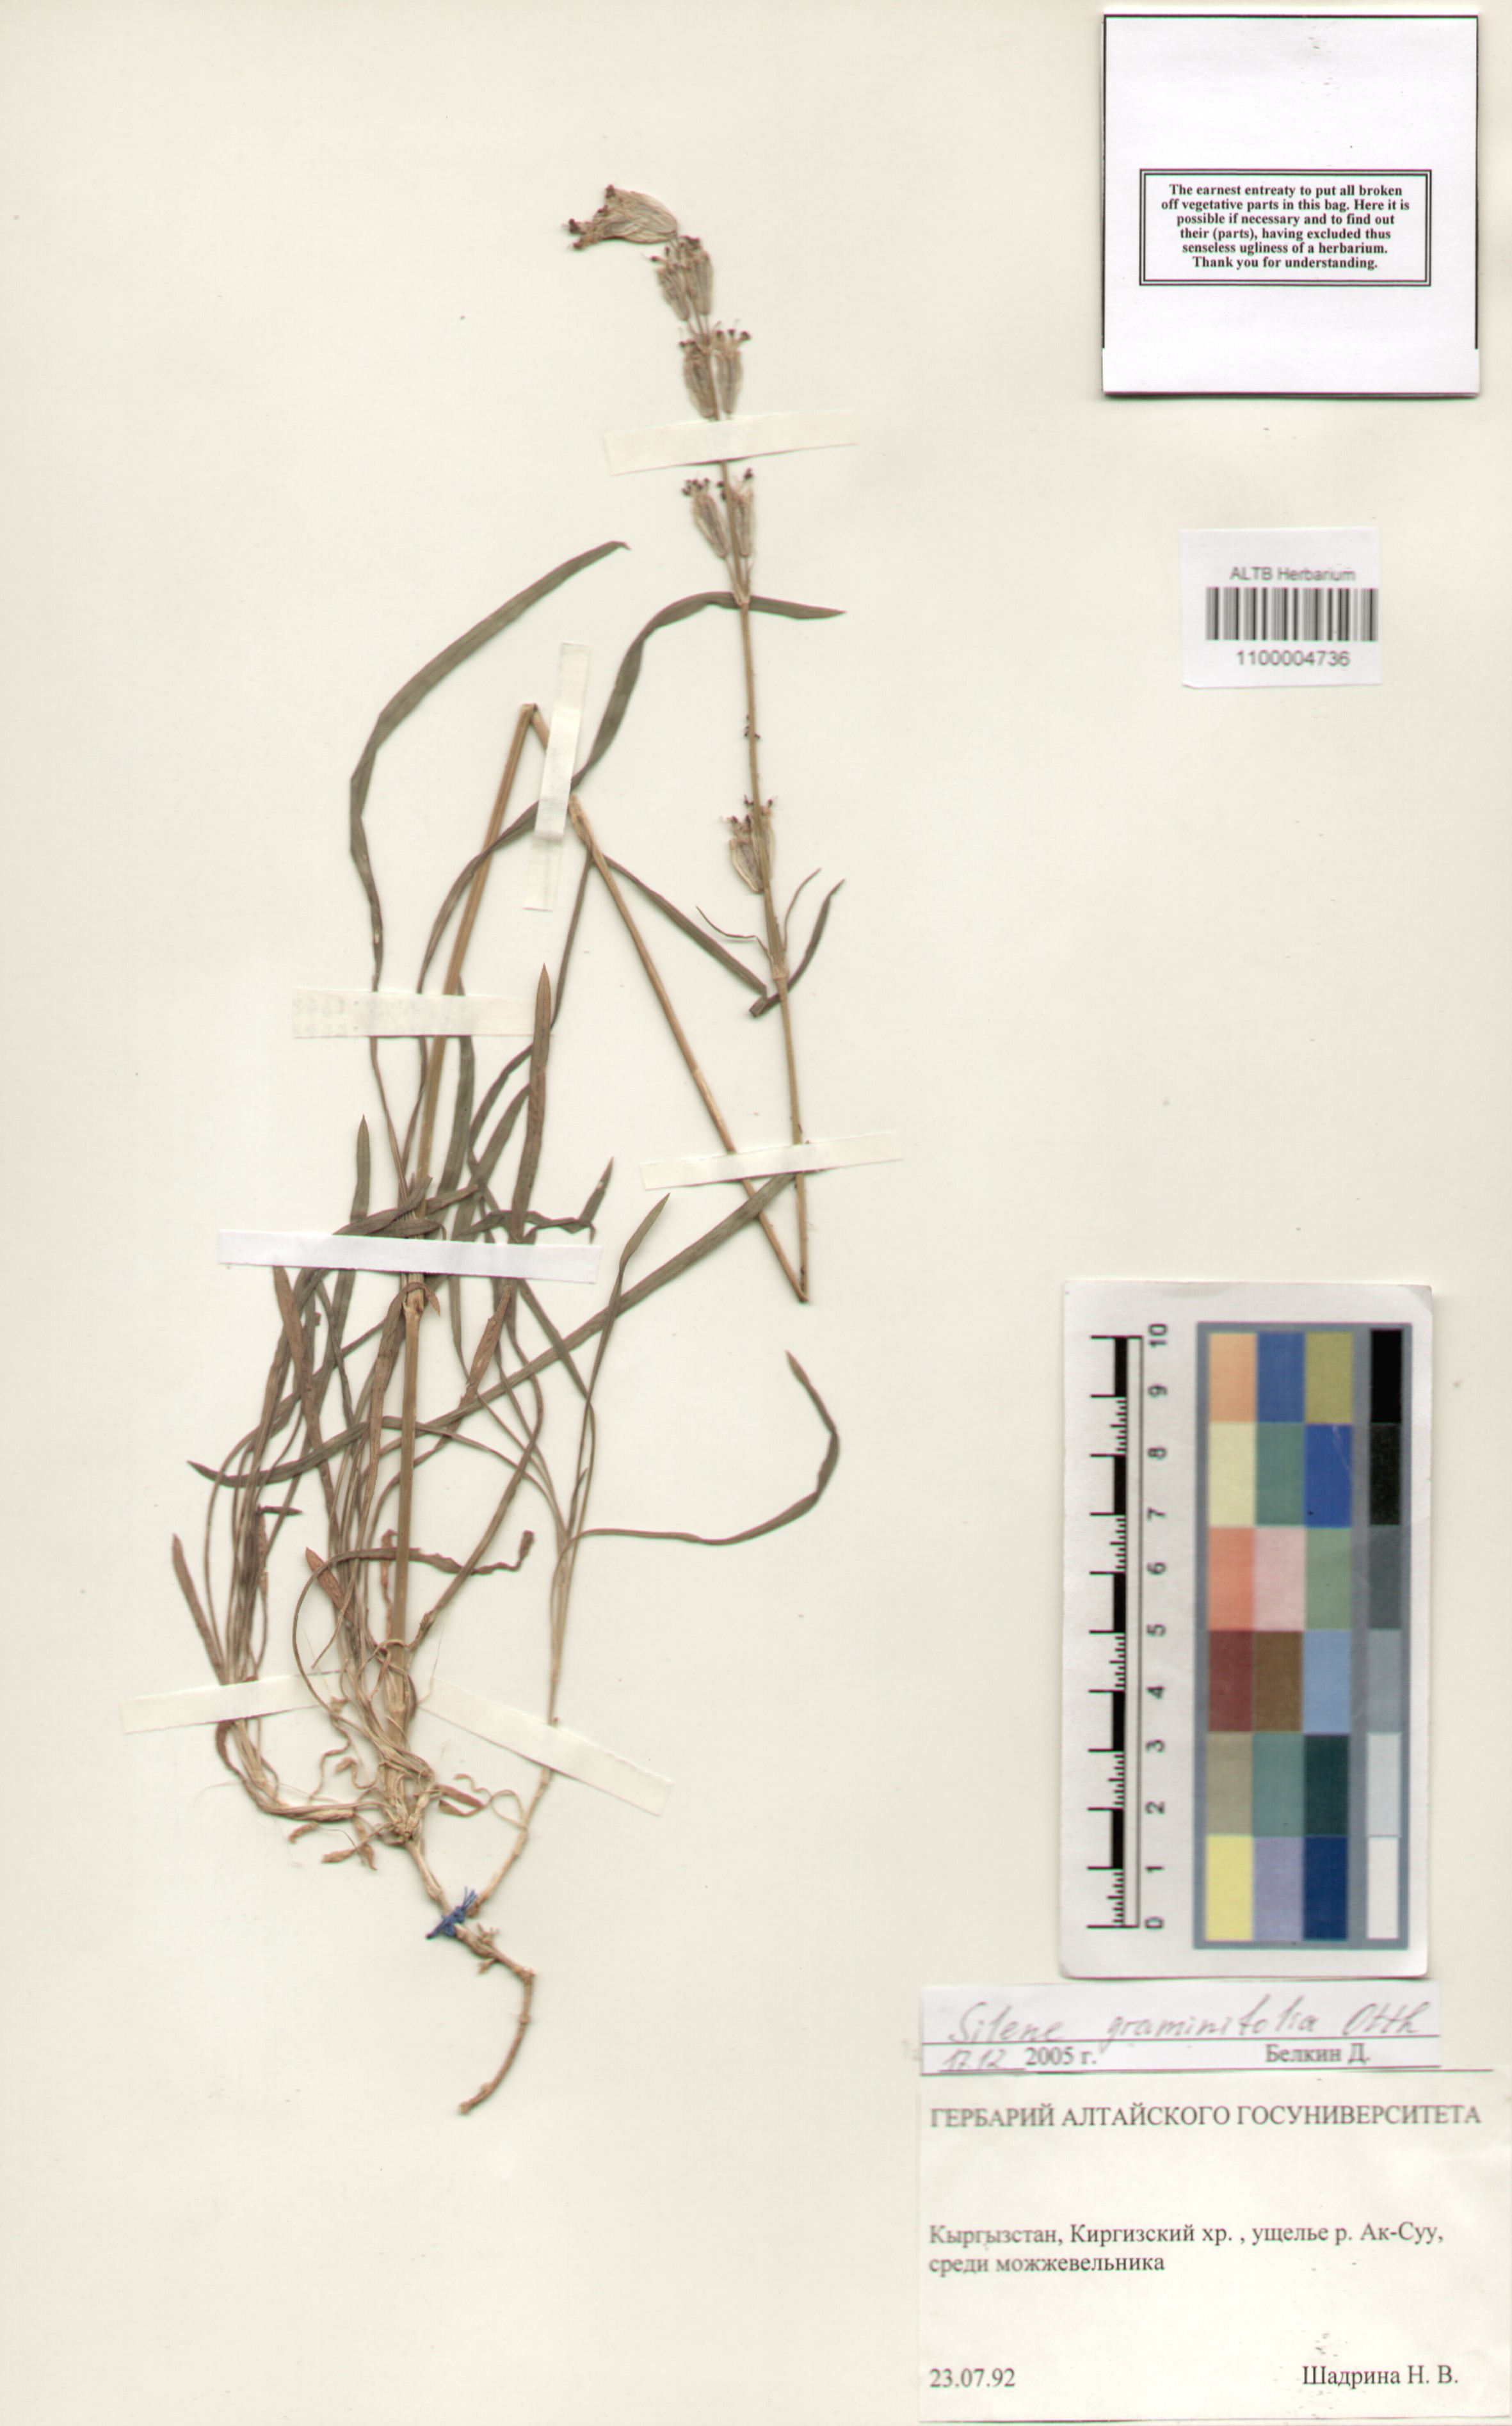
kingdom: Plantae
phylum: Tracheophyta
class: Magnoliopsida
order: Caryophyllales
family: Caryophyllaceae
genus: Silene
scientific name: Silene graminifolia
